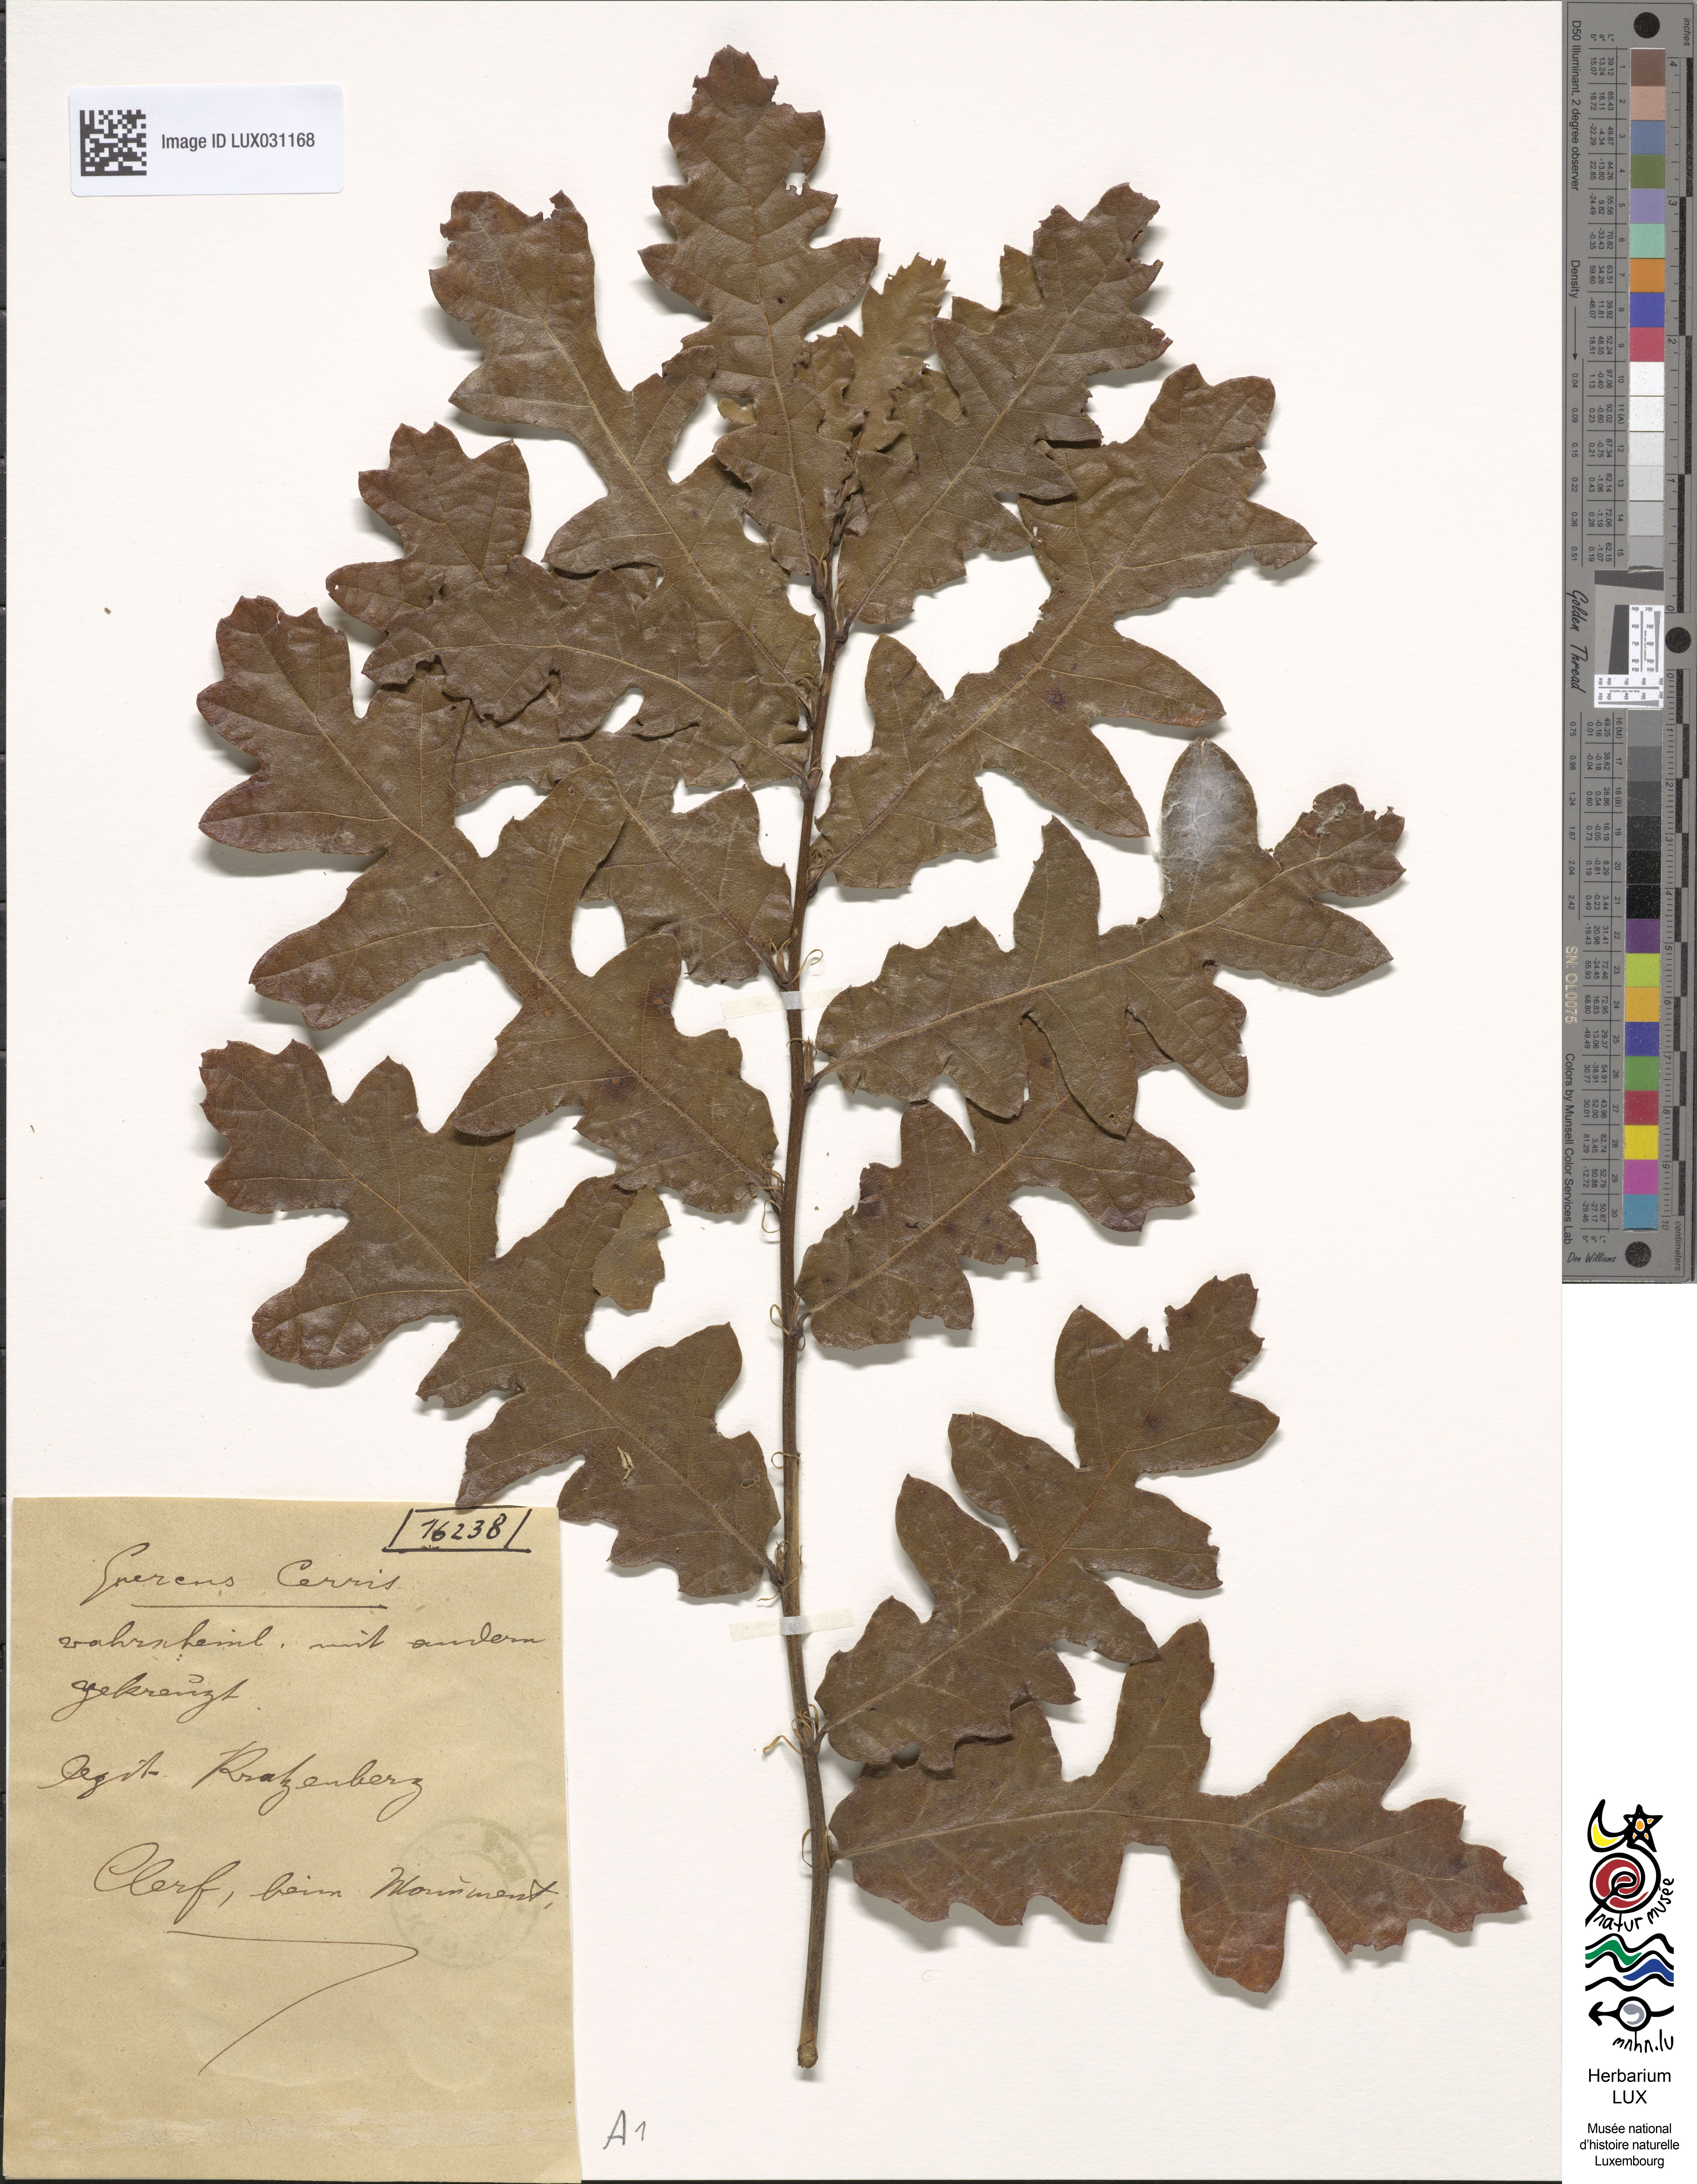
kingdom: Plantae
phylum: Tracheophyta
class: Magnoliopsida
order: Fagales
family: Fagaceae
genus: Quercus
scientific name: Quercus cerris
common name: Turkey oak
